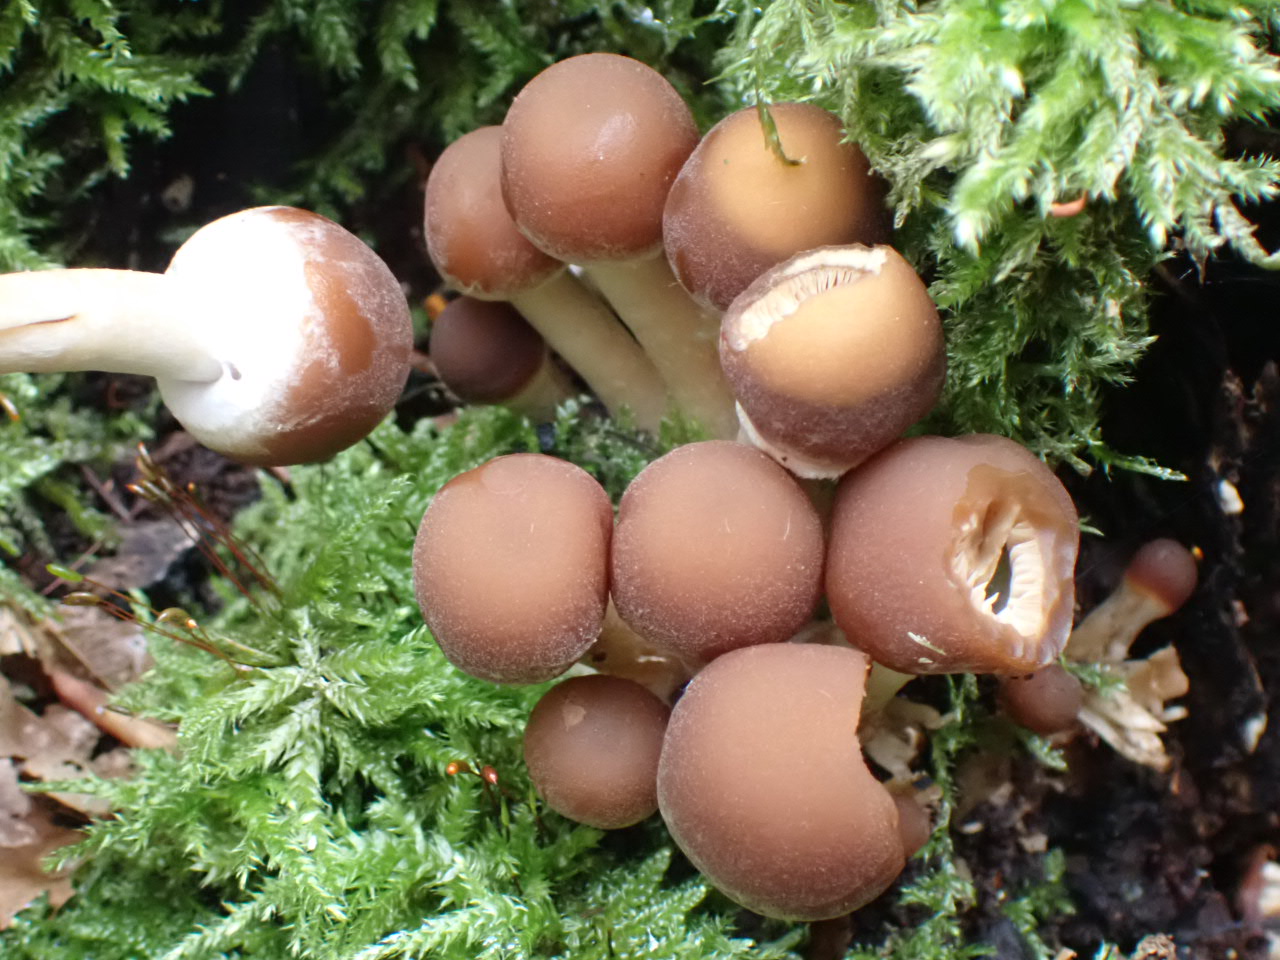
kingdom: Fungi
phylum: Basidiomycota
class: Agaricomycetes
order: Agaricales
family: Psathyrellaceae
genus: Psathyrella
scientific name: Psathyrella
